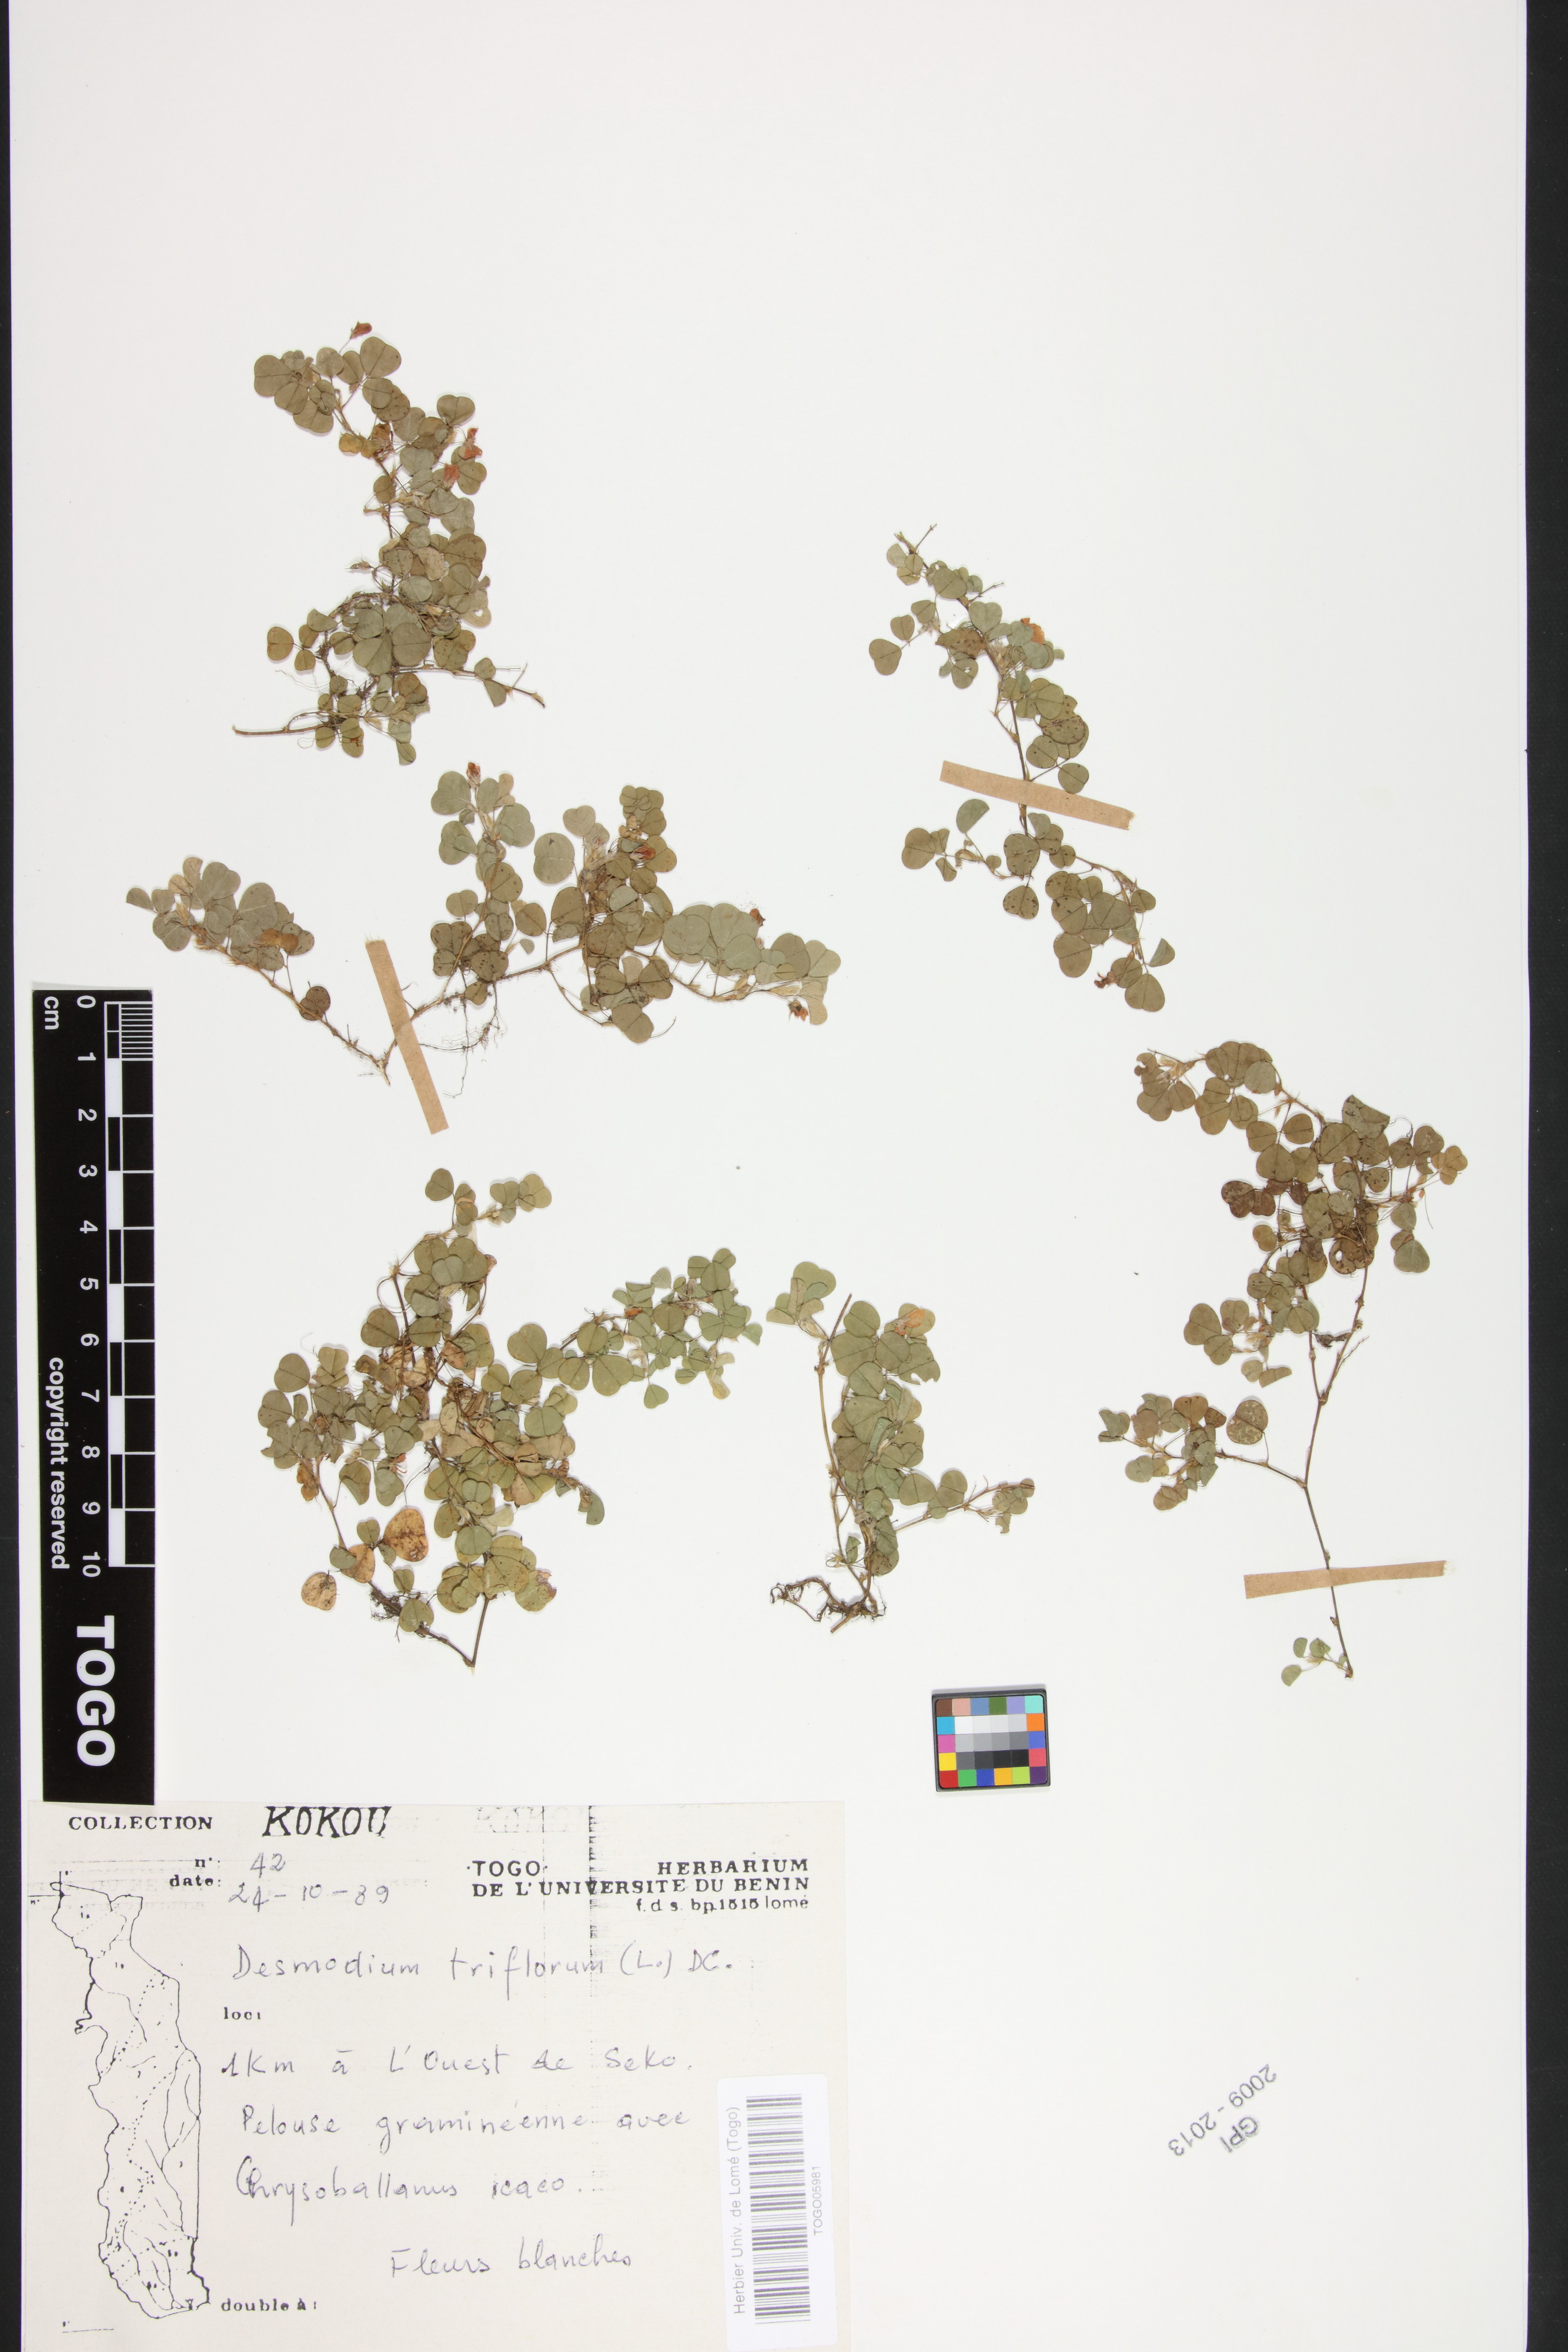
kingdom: Plantae
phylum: Tracheophyta
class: Magnoliopsida
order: Fabales
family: Fabaceae
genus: Grona
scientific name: Grona triflora
